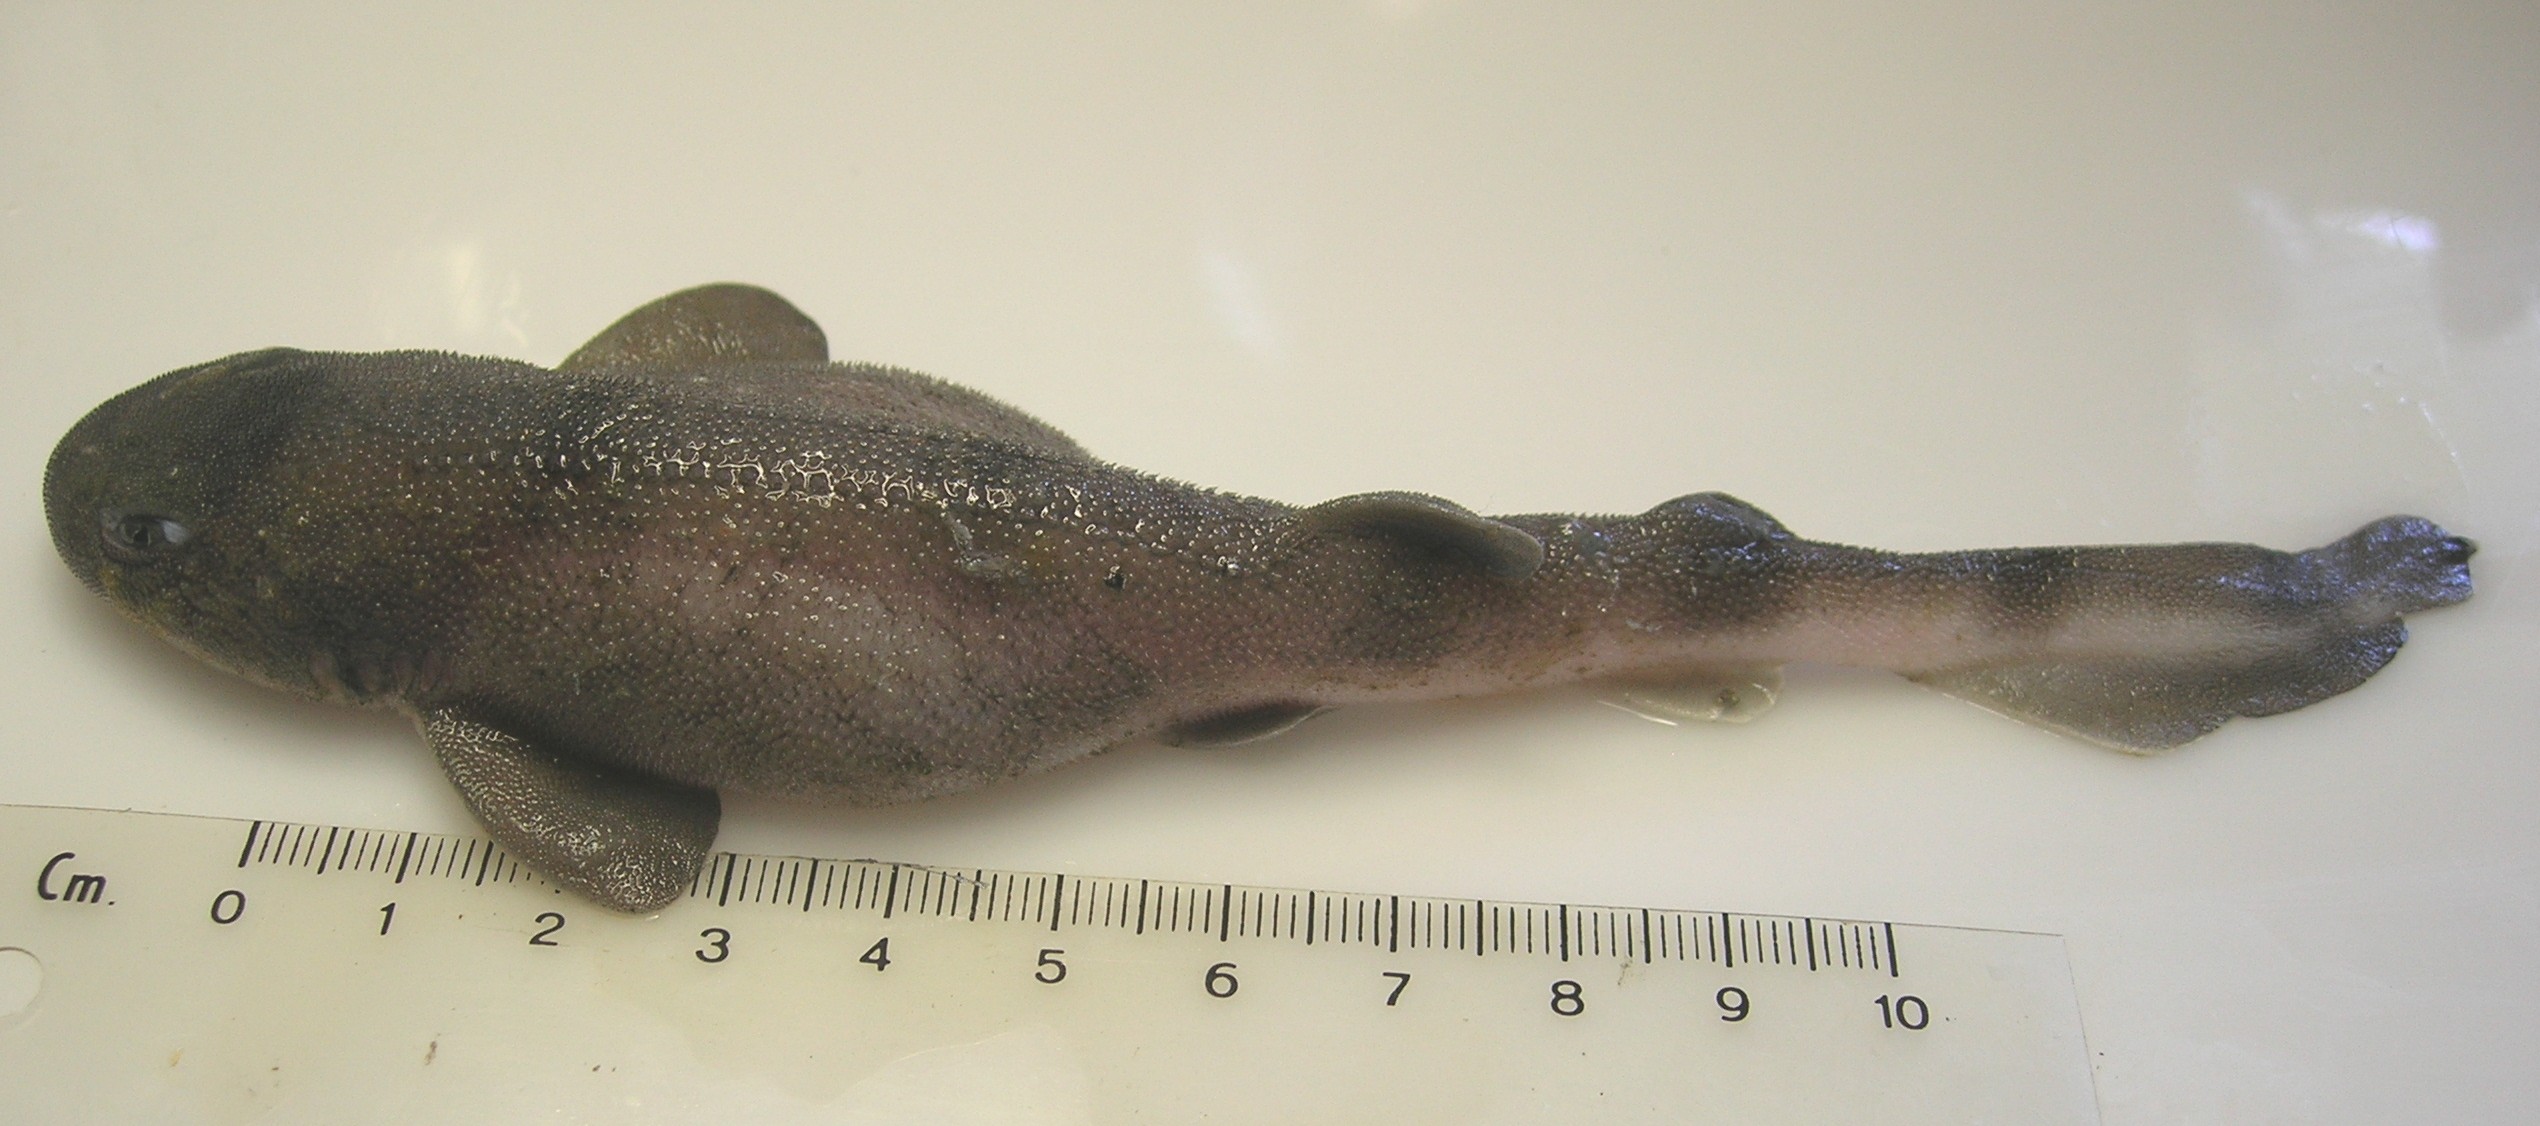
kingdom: Animalia
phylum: Chordata
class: Elasmobranchii
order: Carcharhiniformes
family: Scyliorhinidae
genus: Cephaloscyllium
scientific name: Cephaloscyllium sufflans
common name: Balloon shark
